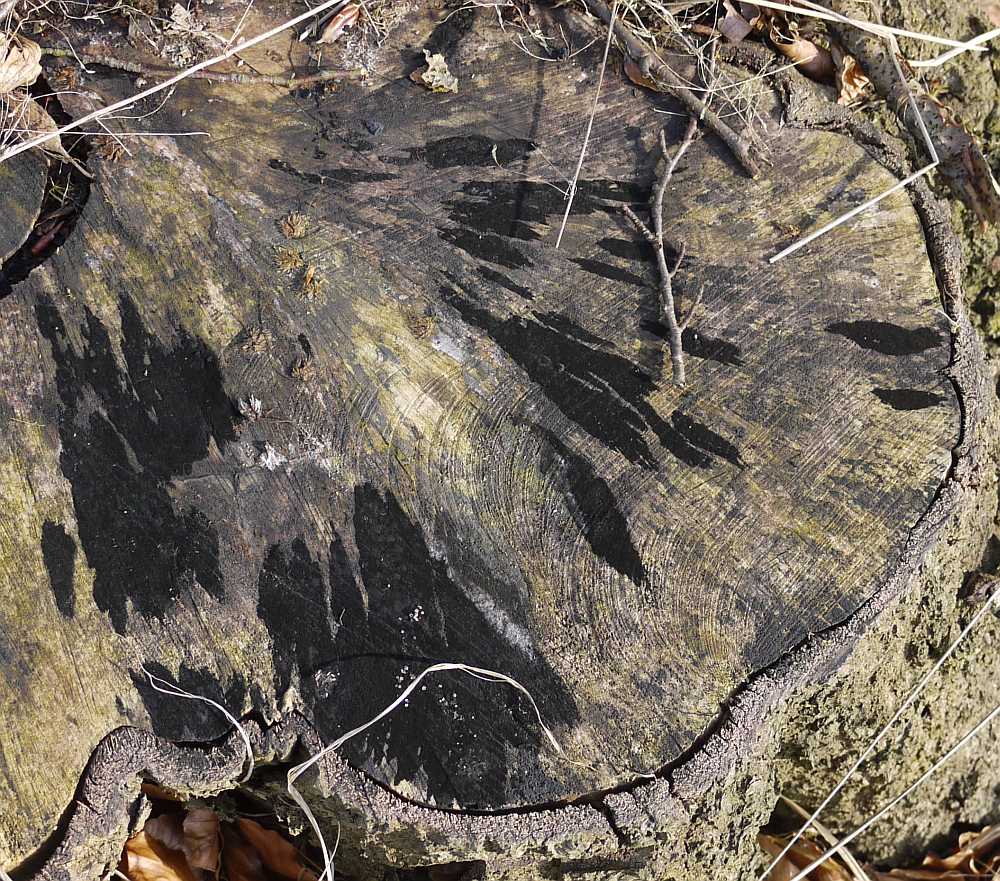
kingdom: Fungi
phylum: Ascomycota
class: Leotiomycetes
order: Helotiales
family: Helotiaceae
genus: Bispora
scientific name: Bispora pallescens
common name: måtte-snitskive
